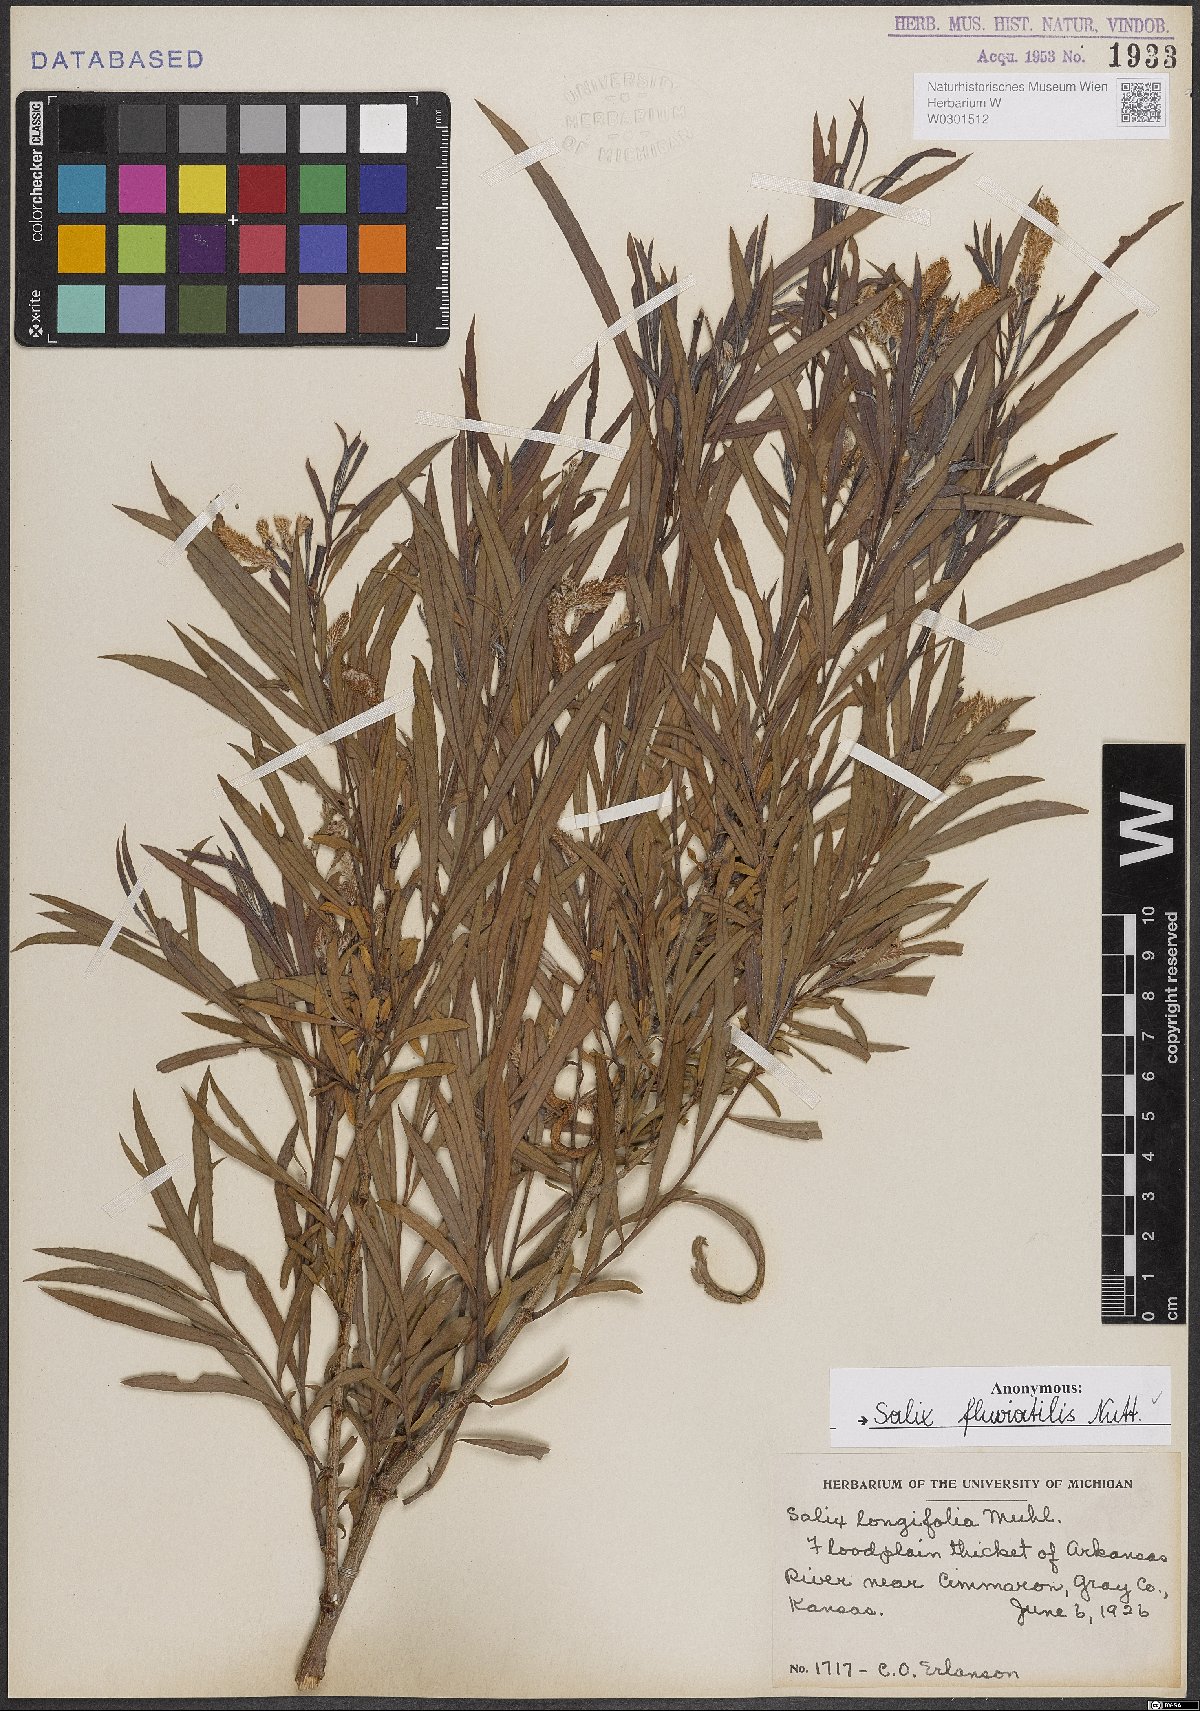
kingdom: Plantae
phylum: Tracheophyta
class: Magnoliopsida
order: Malpighiales
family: Salicaceae
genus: Salix
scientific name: Salix melanopsis
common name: Dusky willow
